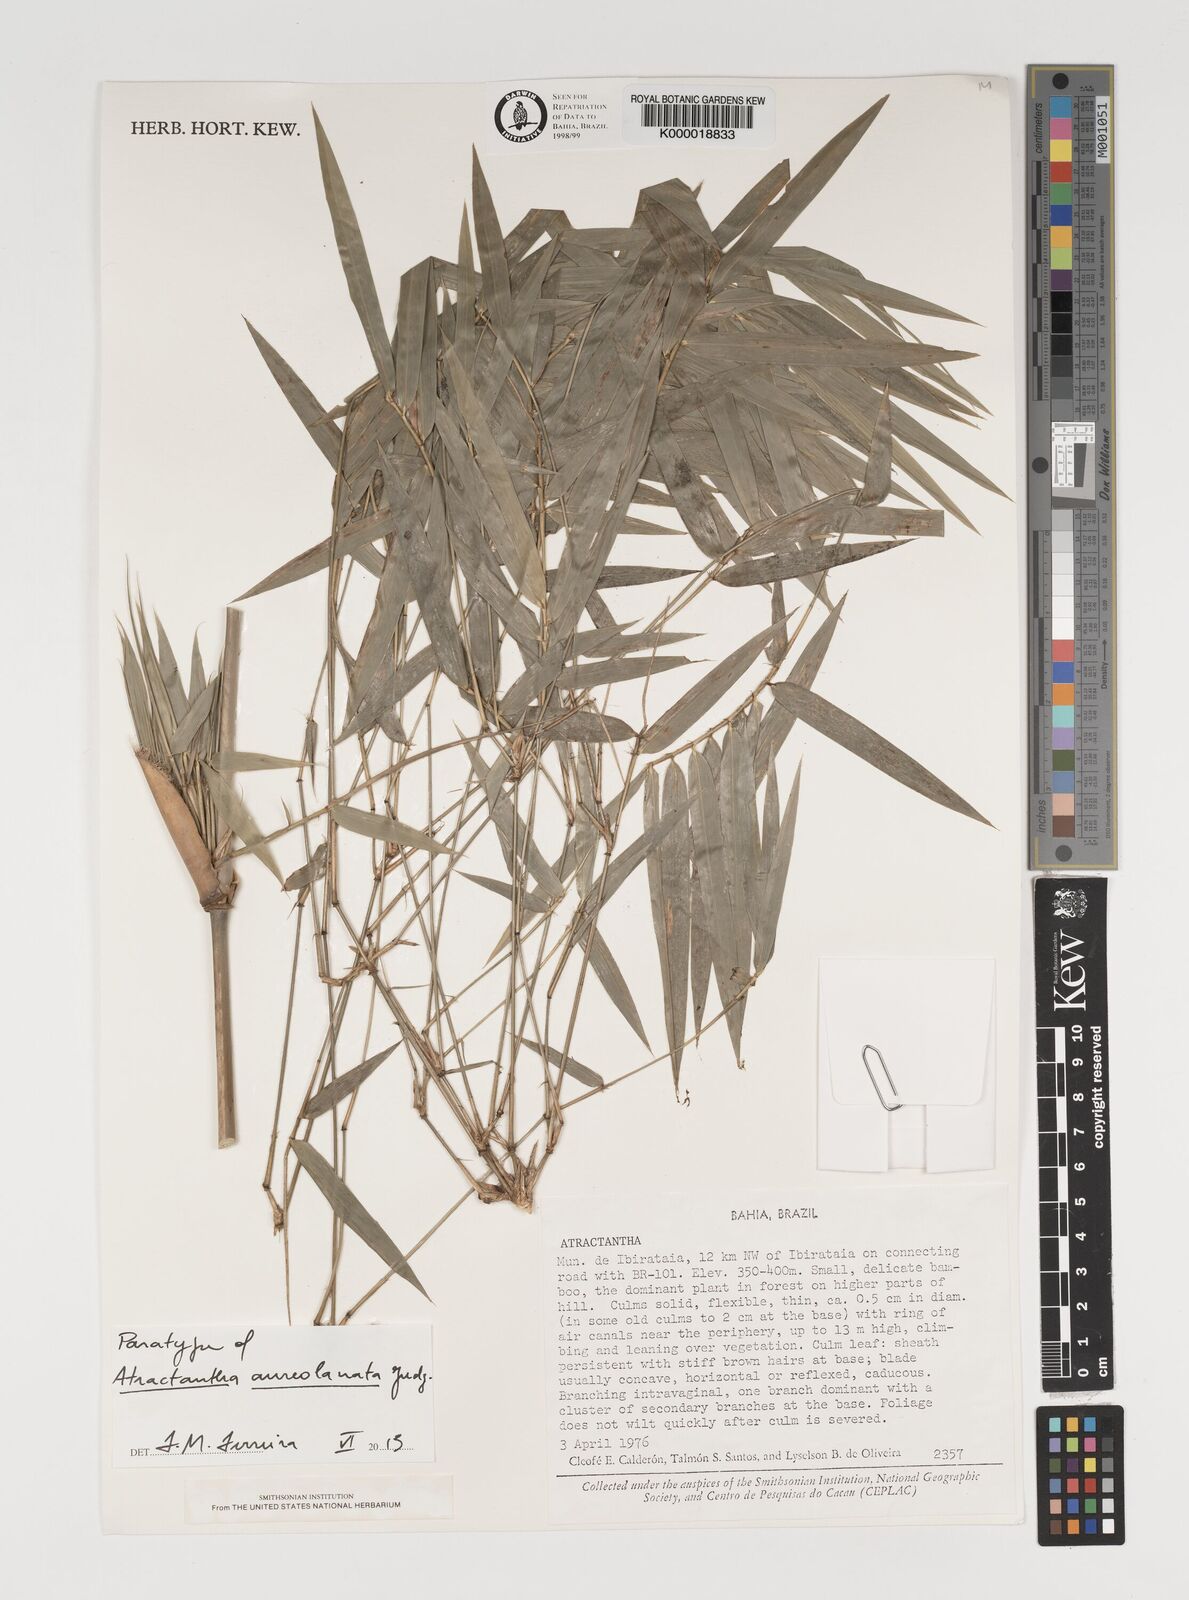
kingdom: Plantae
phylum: Tracheophyta
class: Liliopsida
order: Poales
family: Poaceae
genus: Atractantha
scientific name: Atractantha aureolanata
